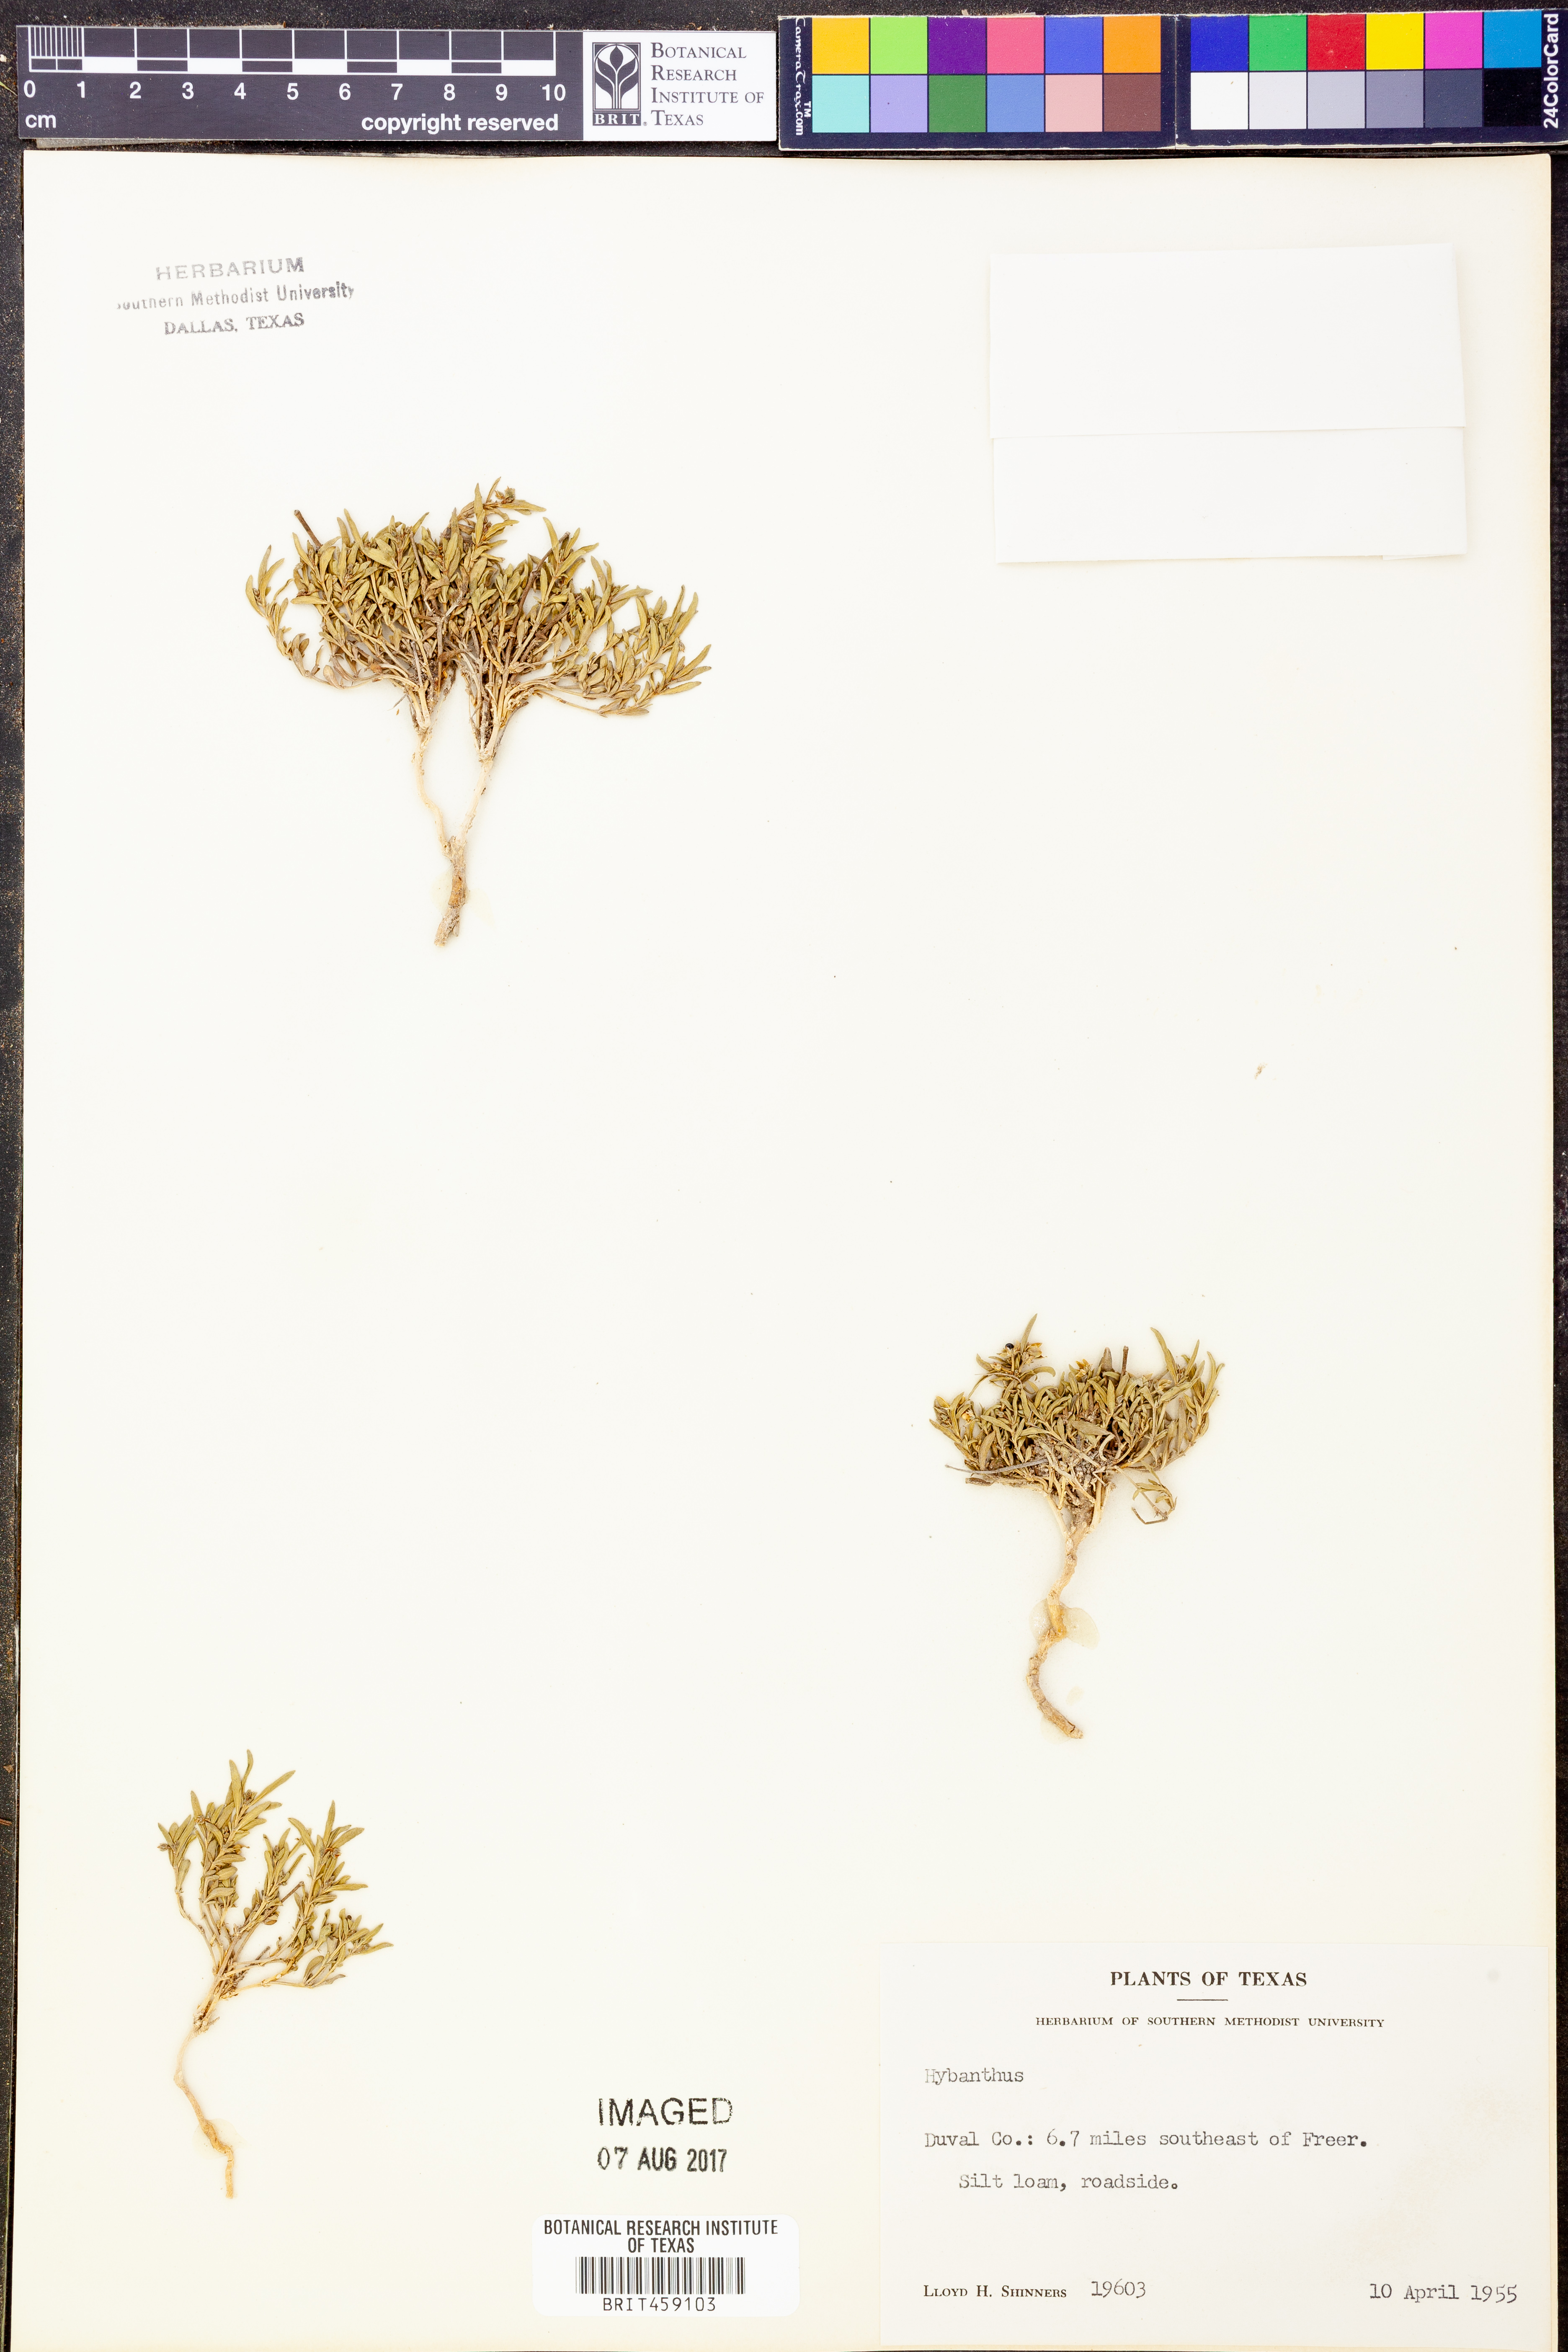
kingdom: Plantae
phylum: Tracheophyta
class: Magnoliopsida
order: Malpighiales
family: Violaceae
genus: Hybanthus
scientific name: Hybanthus
